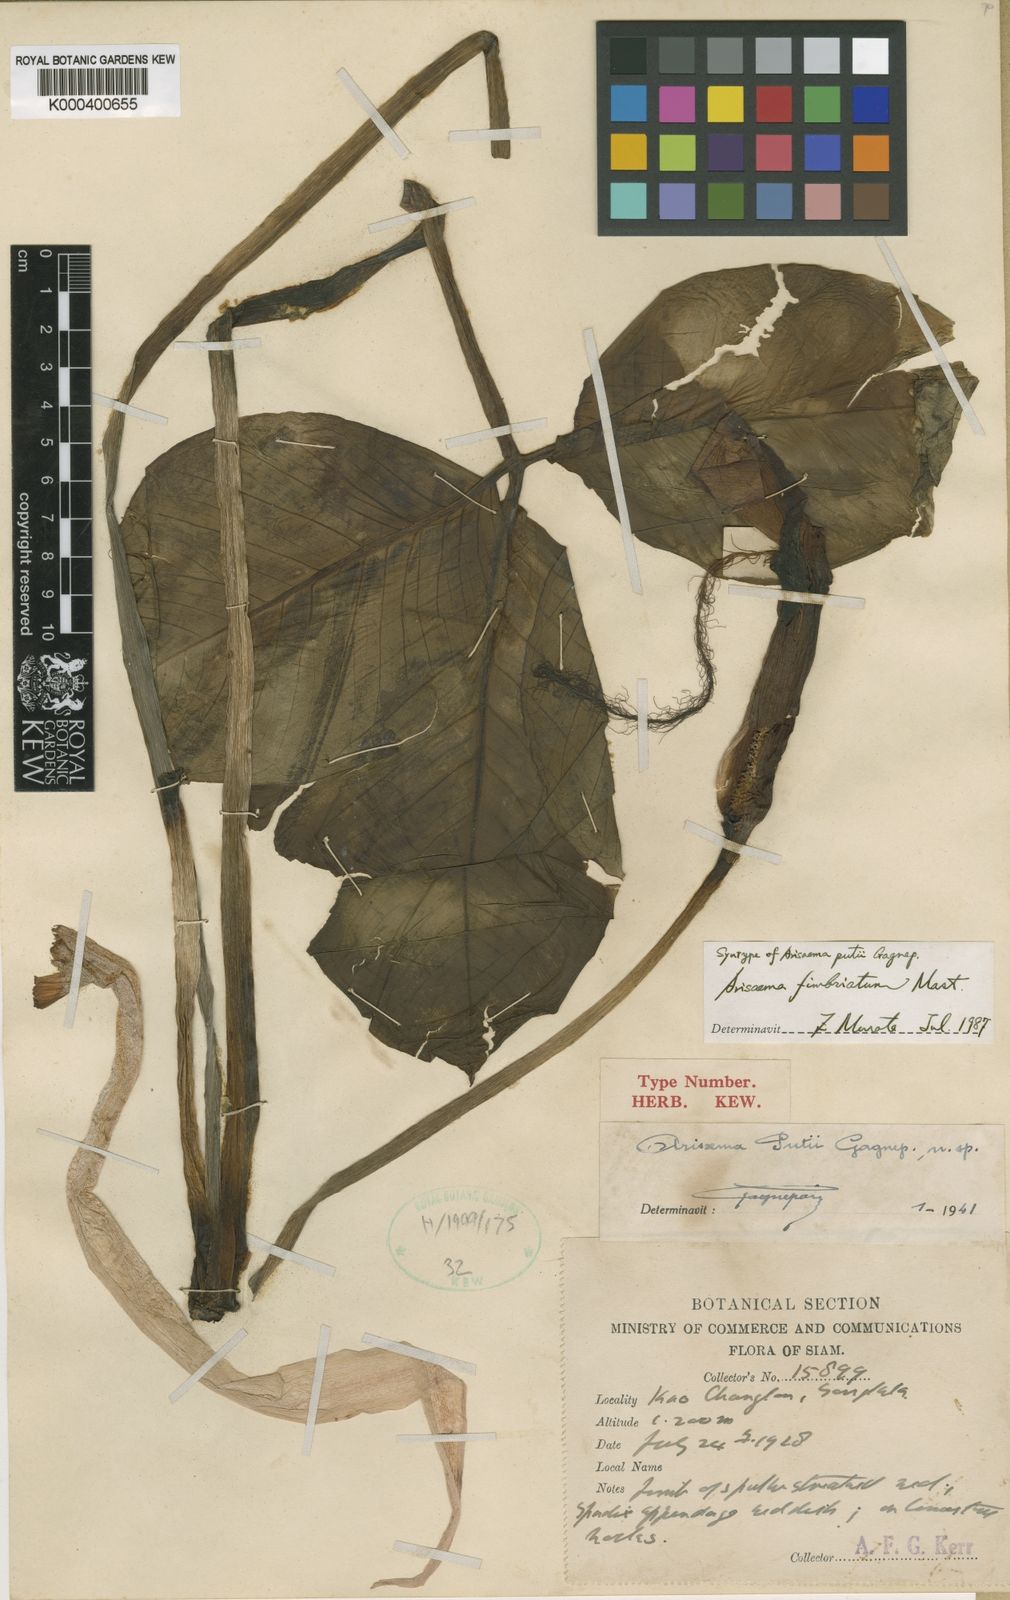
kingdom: Plantae
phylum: Tracheophyta
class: Liliopsida
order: Alismatales
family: Araceae
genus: Arisaema
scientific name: Arisaema fimbriatum
